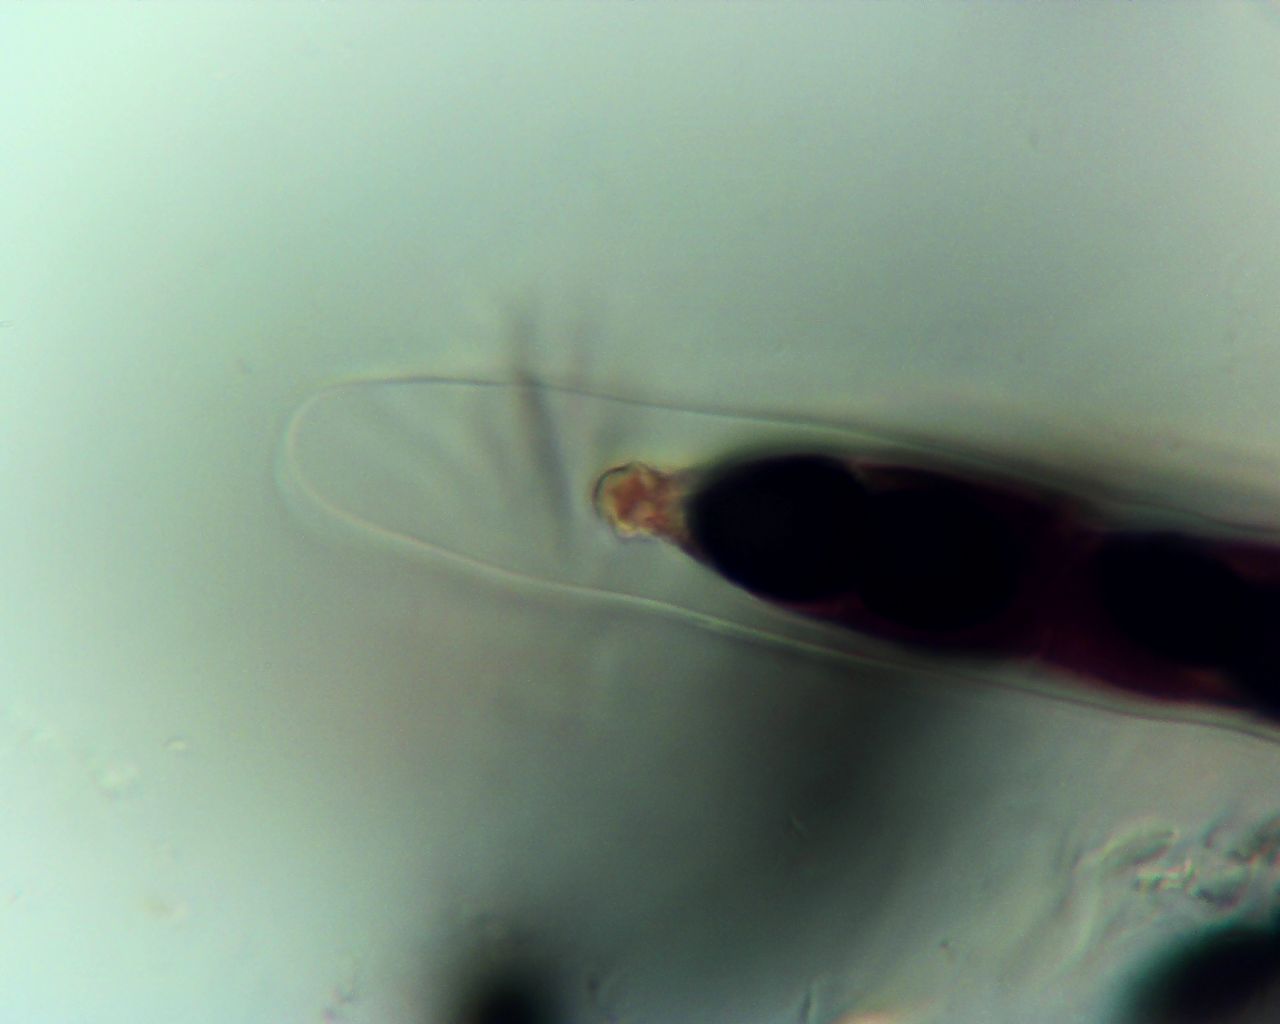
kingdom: Fungi
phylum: Ascomycota
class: Dothideomycetes
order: Phaeotrichales
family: Phaeotrichaceae
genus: Trichodelitschia
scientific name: Trichodelitschia bisporula
